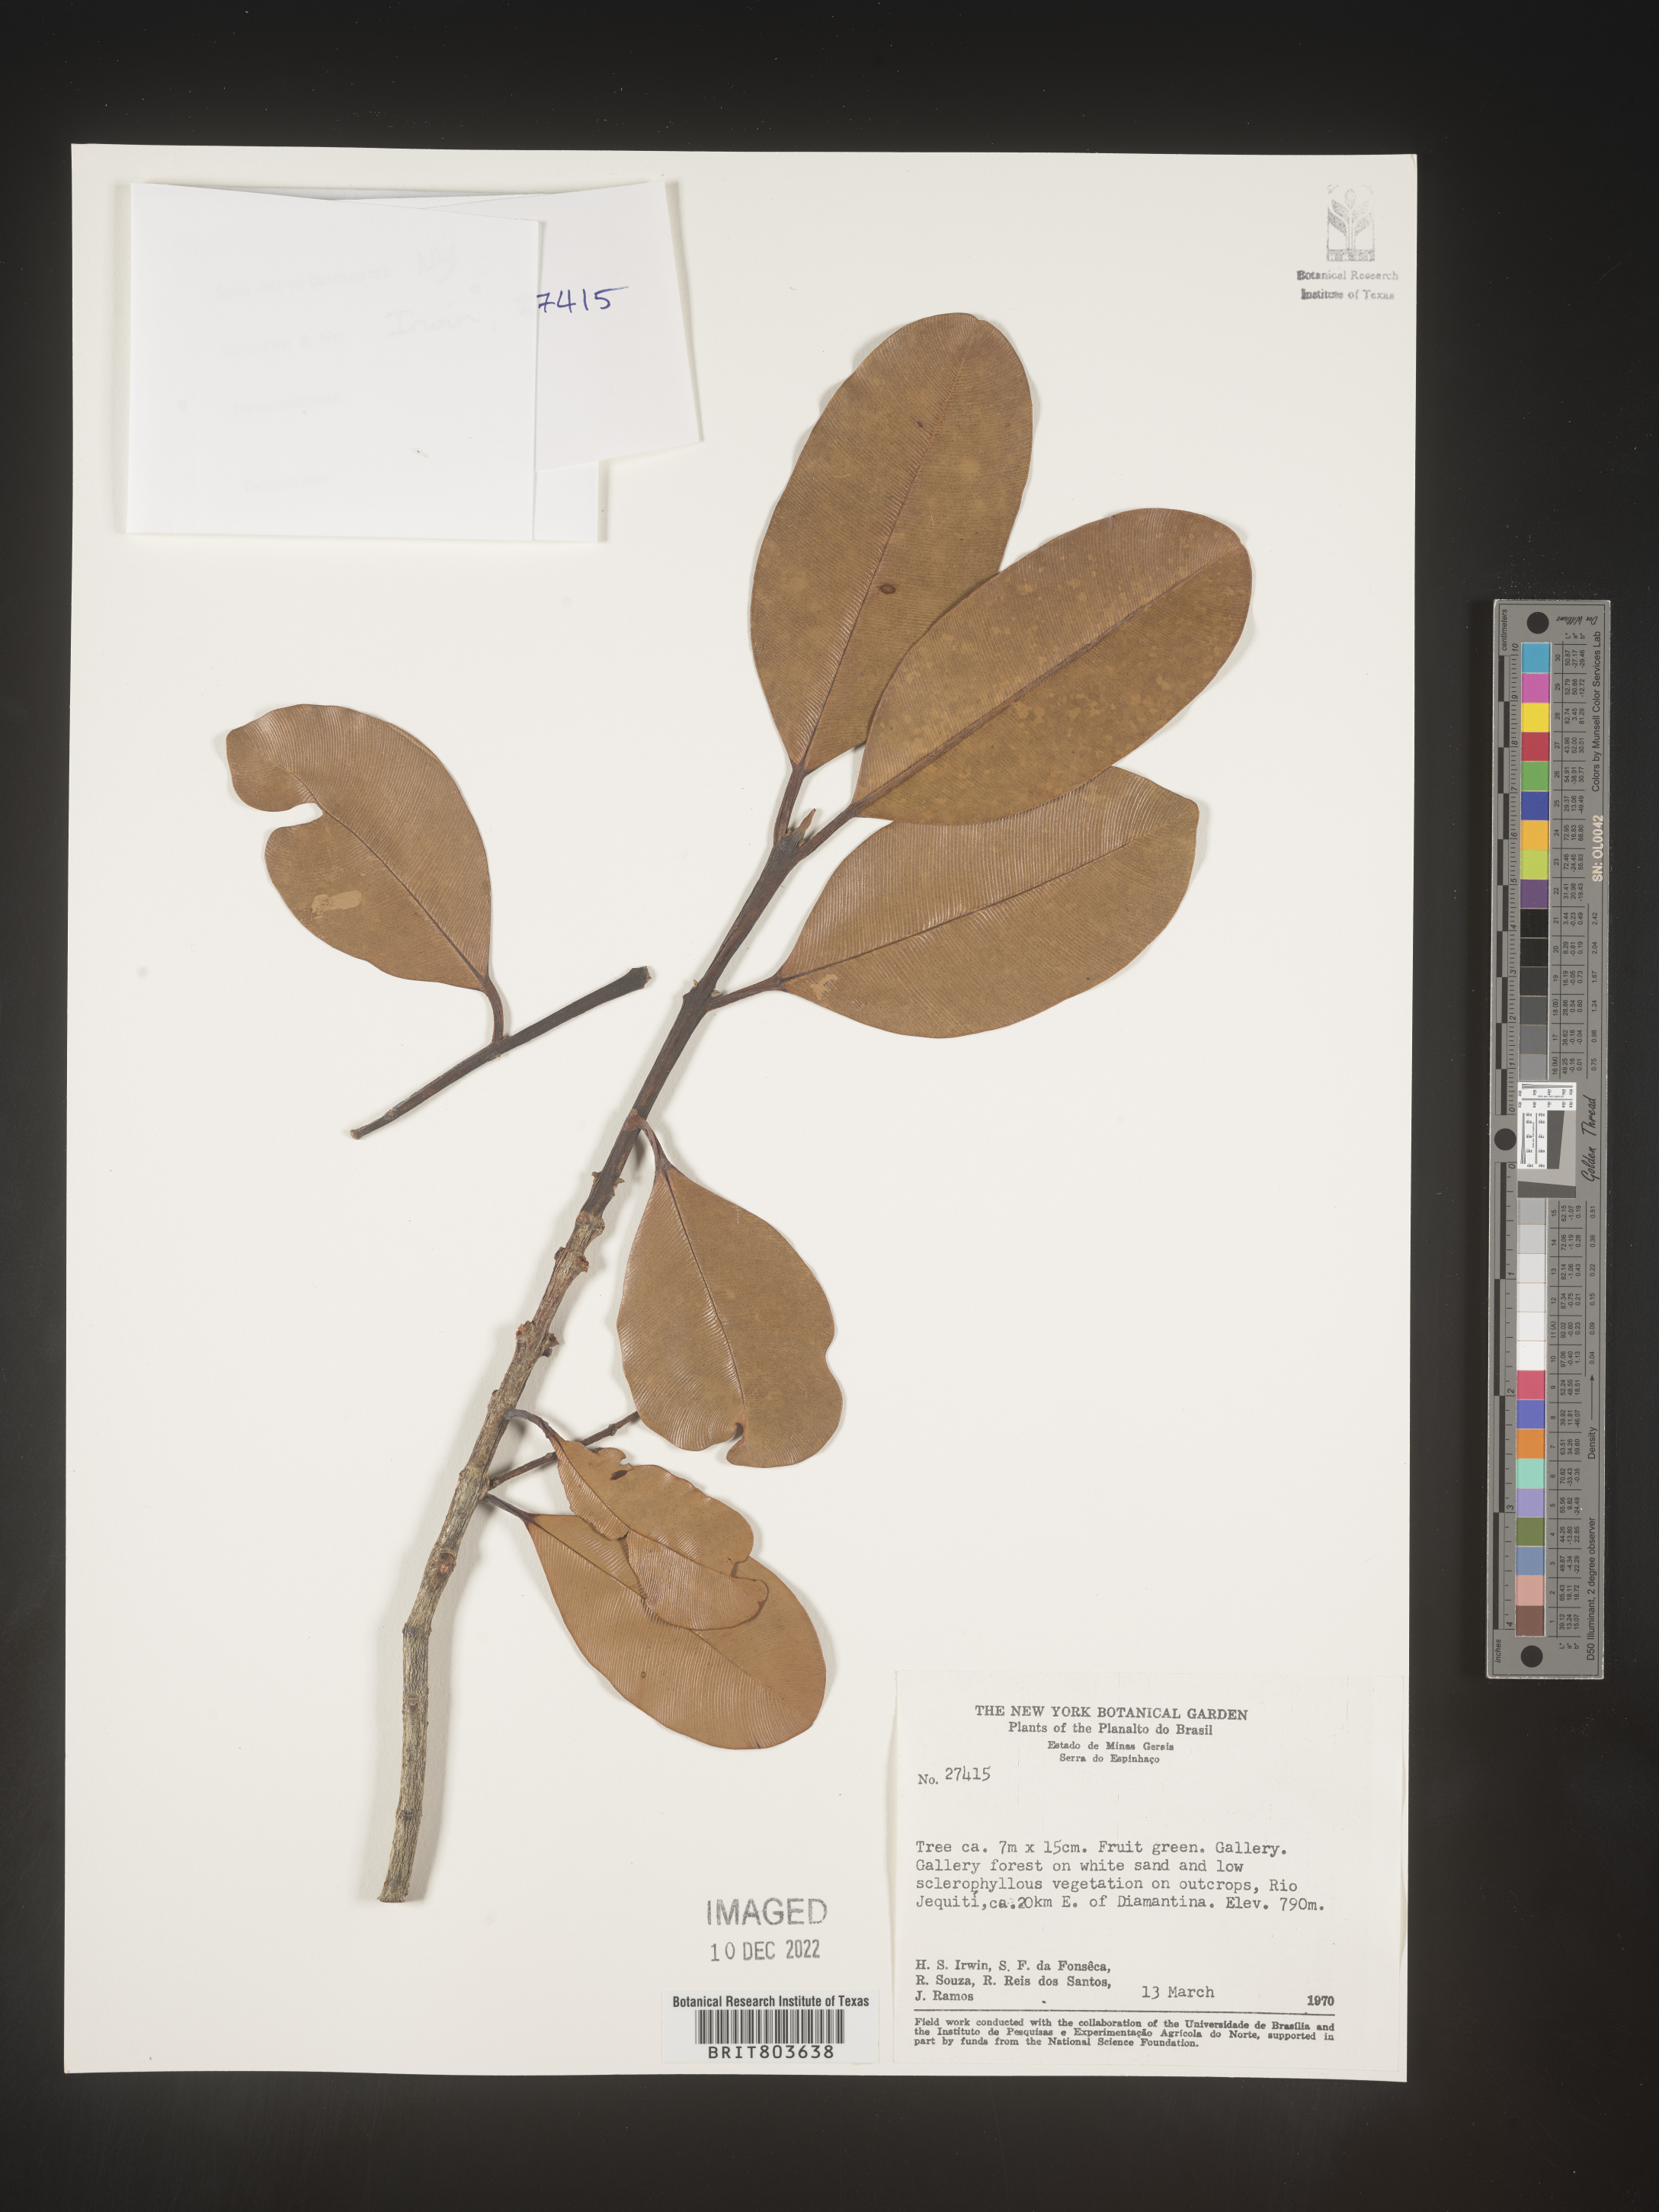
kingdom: Plantae
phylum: Tracheophyta
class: Magnoliopsida
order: Malpighiales
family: Clusiaceae
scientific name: Clusiaceae
